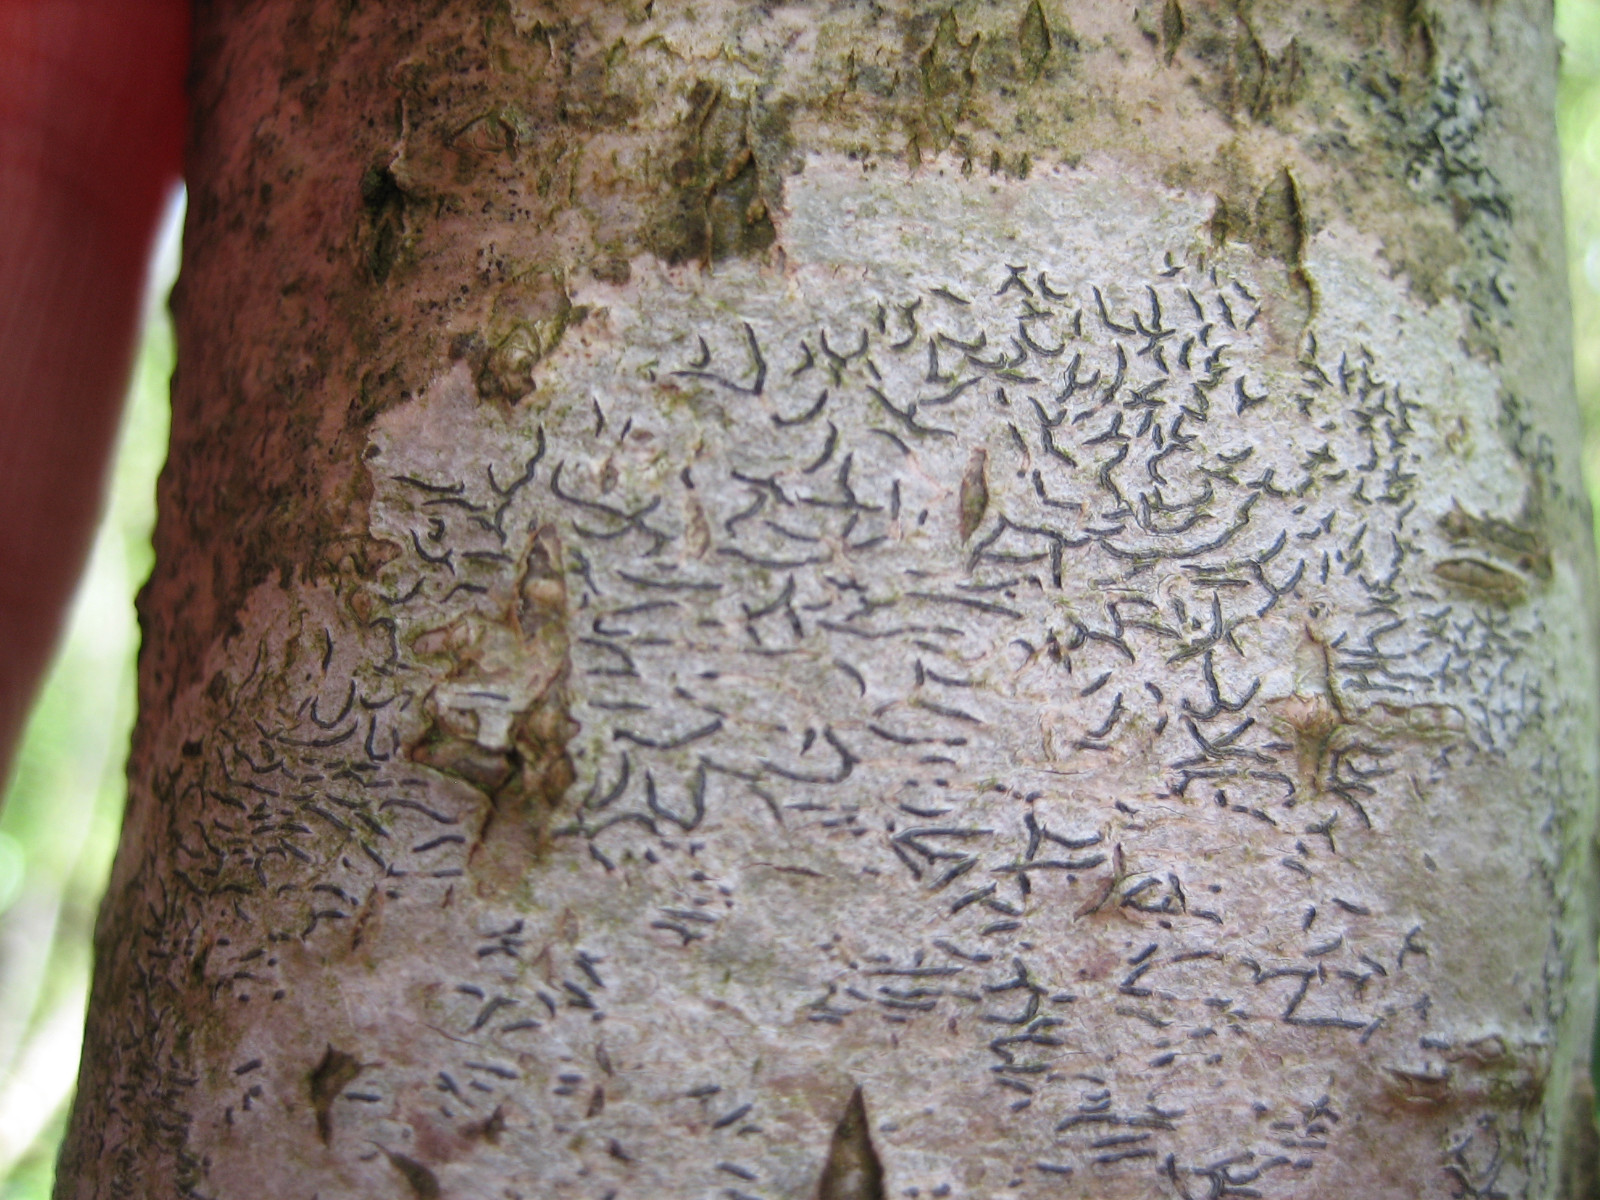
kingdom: Fungi
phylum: Ascomycota
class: Lecanoromycetes
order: Ostropales
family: Graphidaceae
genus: Graphis
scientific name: Graphis scripta
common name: almindelig skriftlav
